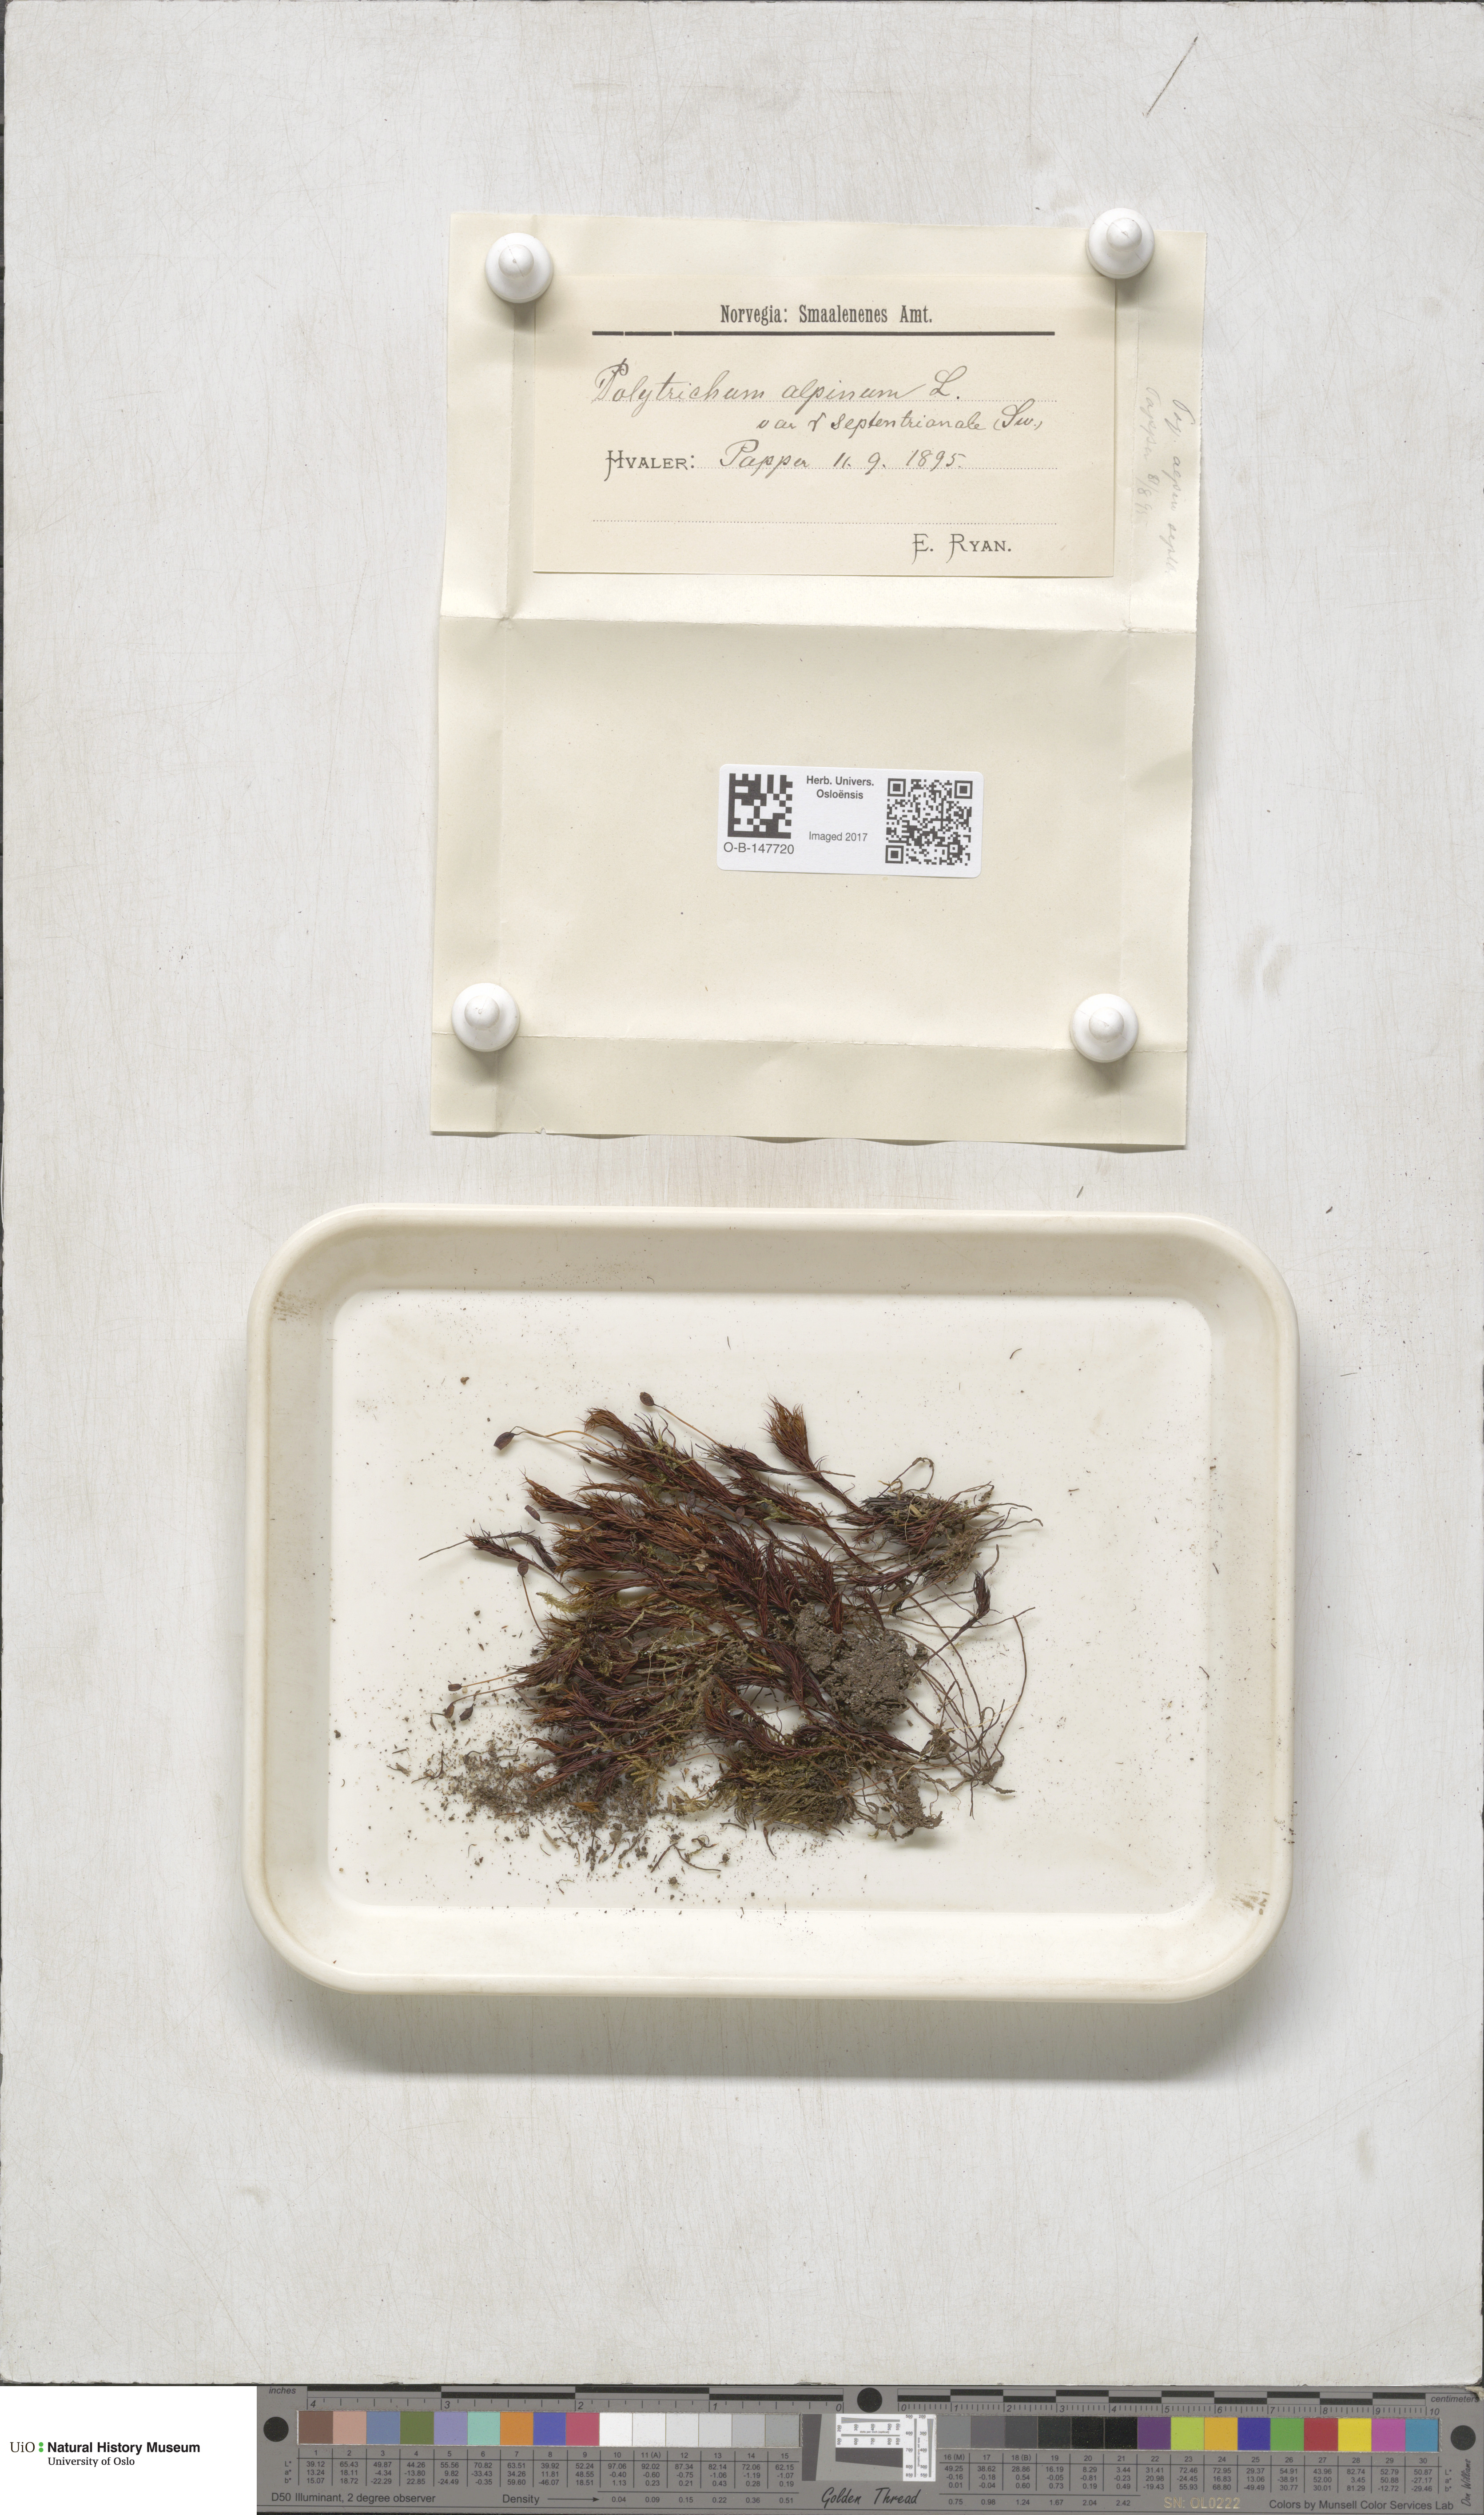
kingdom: Plantae
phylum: Bryophyta
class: Polytrichopsida
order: Polytrichales
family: Polytrichaceae
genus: Polytrichastrum
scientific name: Polytrichastrum alpinum
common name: Alpine haircap
